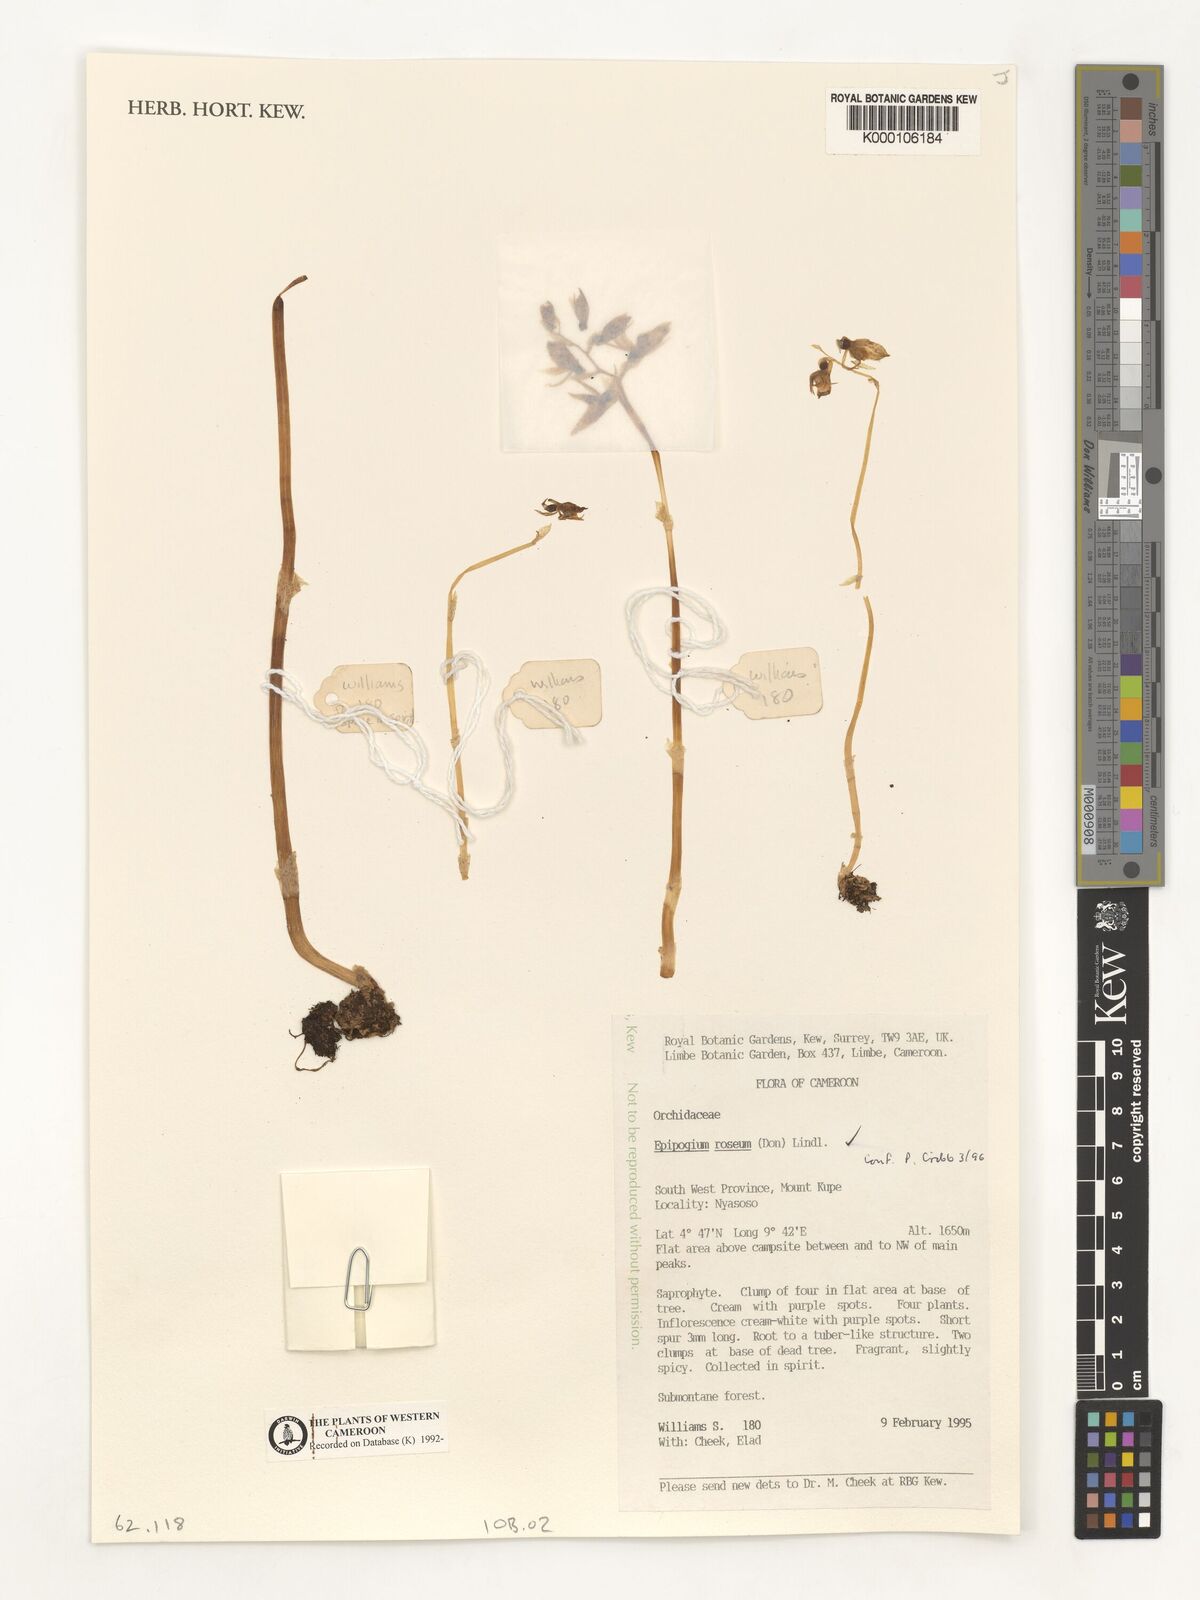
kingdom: Plantae
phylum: Tracheophyta
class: Liliopsida
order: Asparagales
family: Orchidaceae
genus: Epipogium
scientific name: Epipogium roseum
